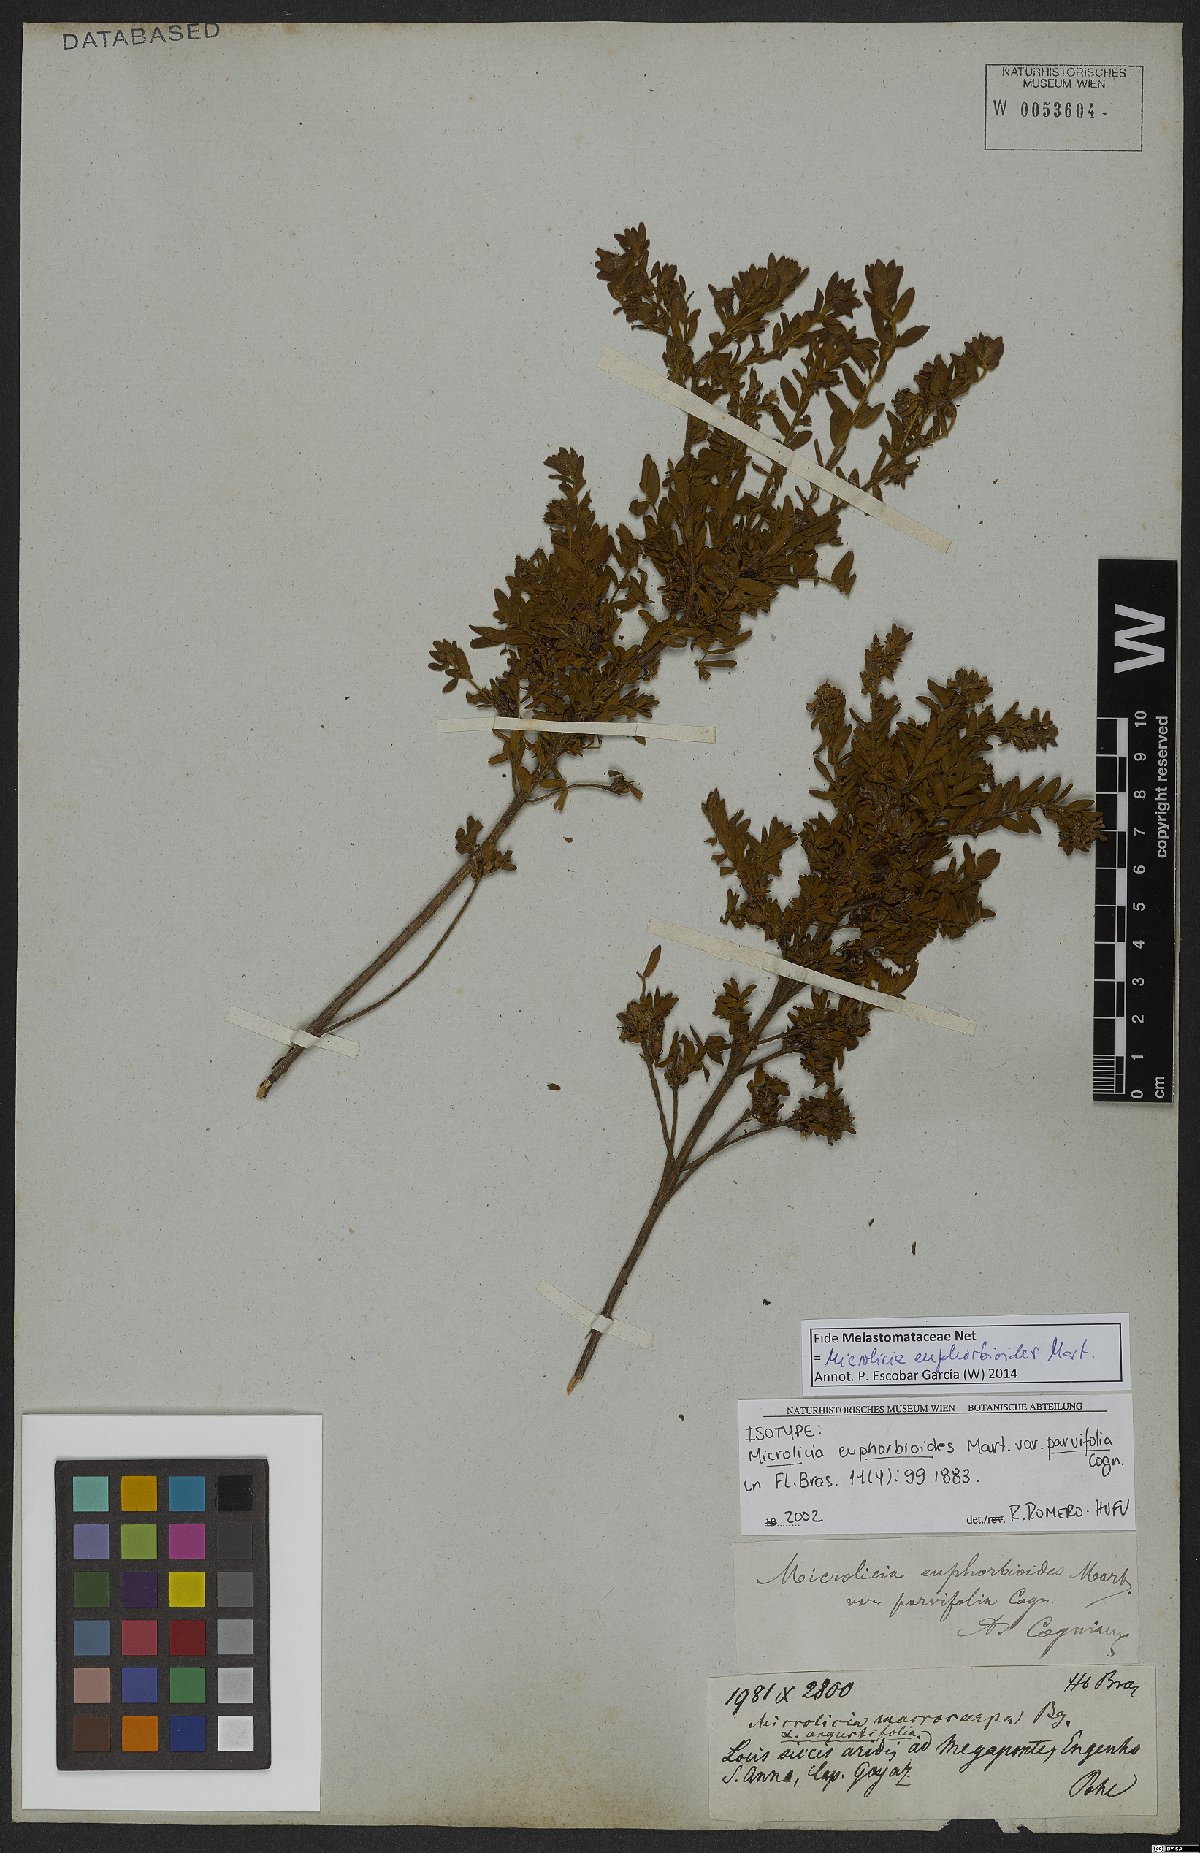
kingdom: Plantae
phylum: Tracheophyta
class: Magnoliopsida
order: Myrtales
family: Melastomataceae
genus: Microlicia
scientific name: Microlicia euphorbioides
